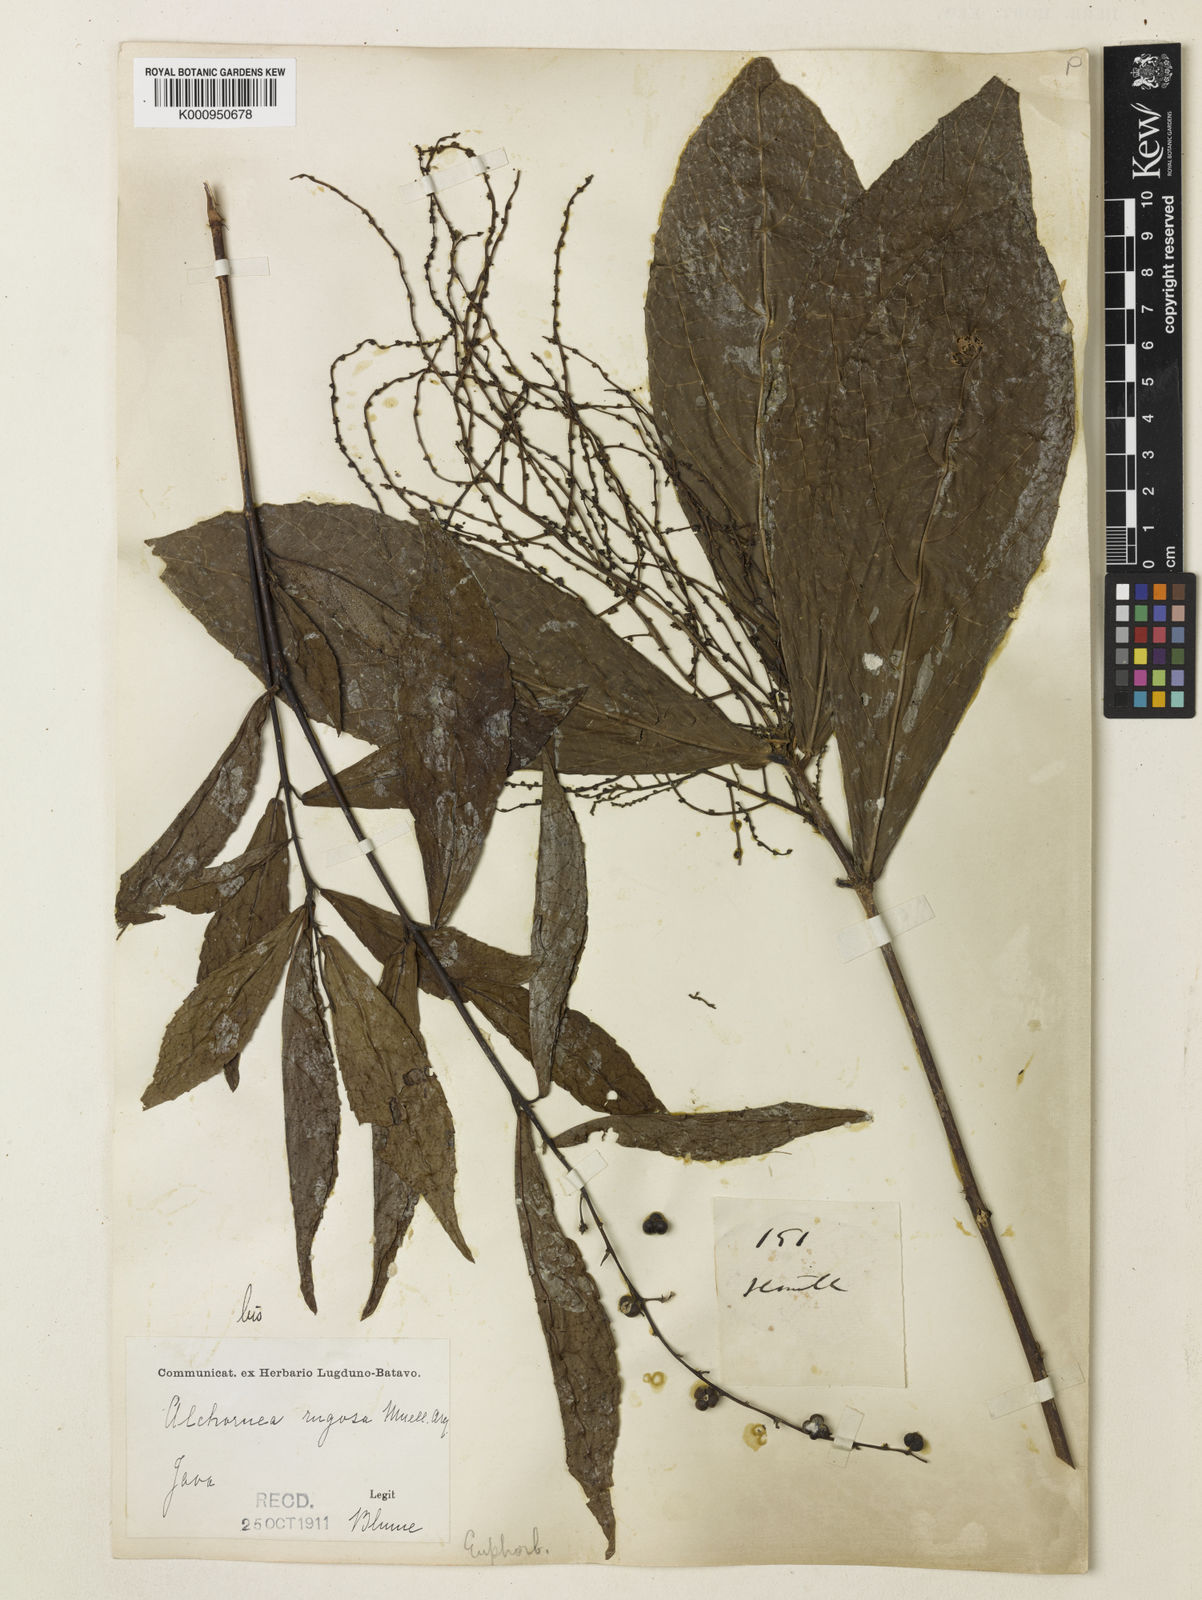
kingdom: Plantae
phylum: Tracheophyta
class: Magnoliopsida
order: Malpighiales
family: Euphorbiaceae
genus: Alchornea
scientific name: Alchornea
